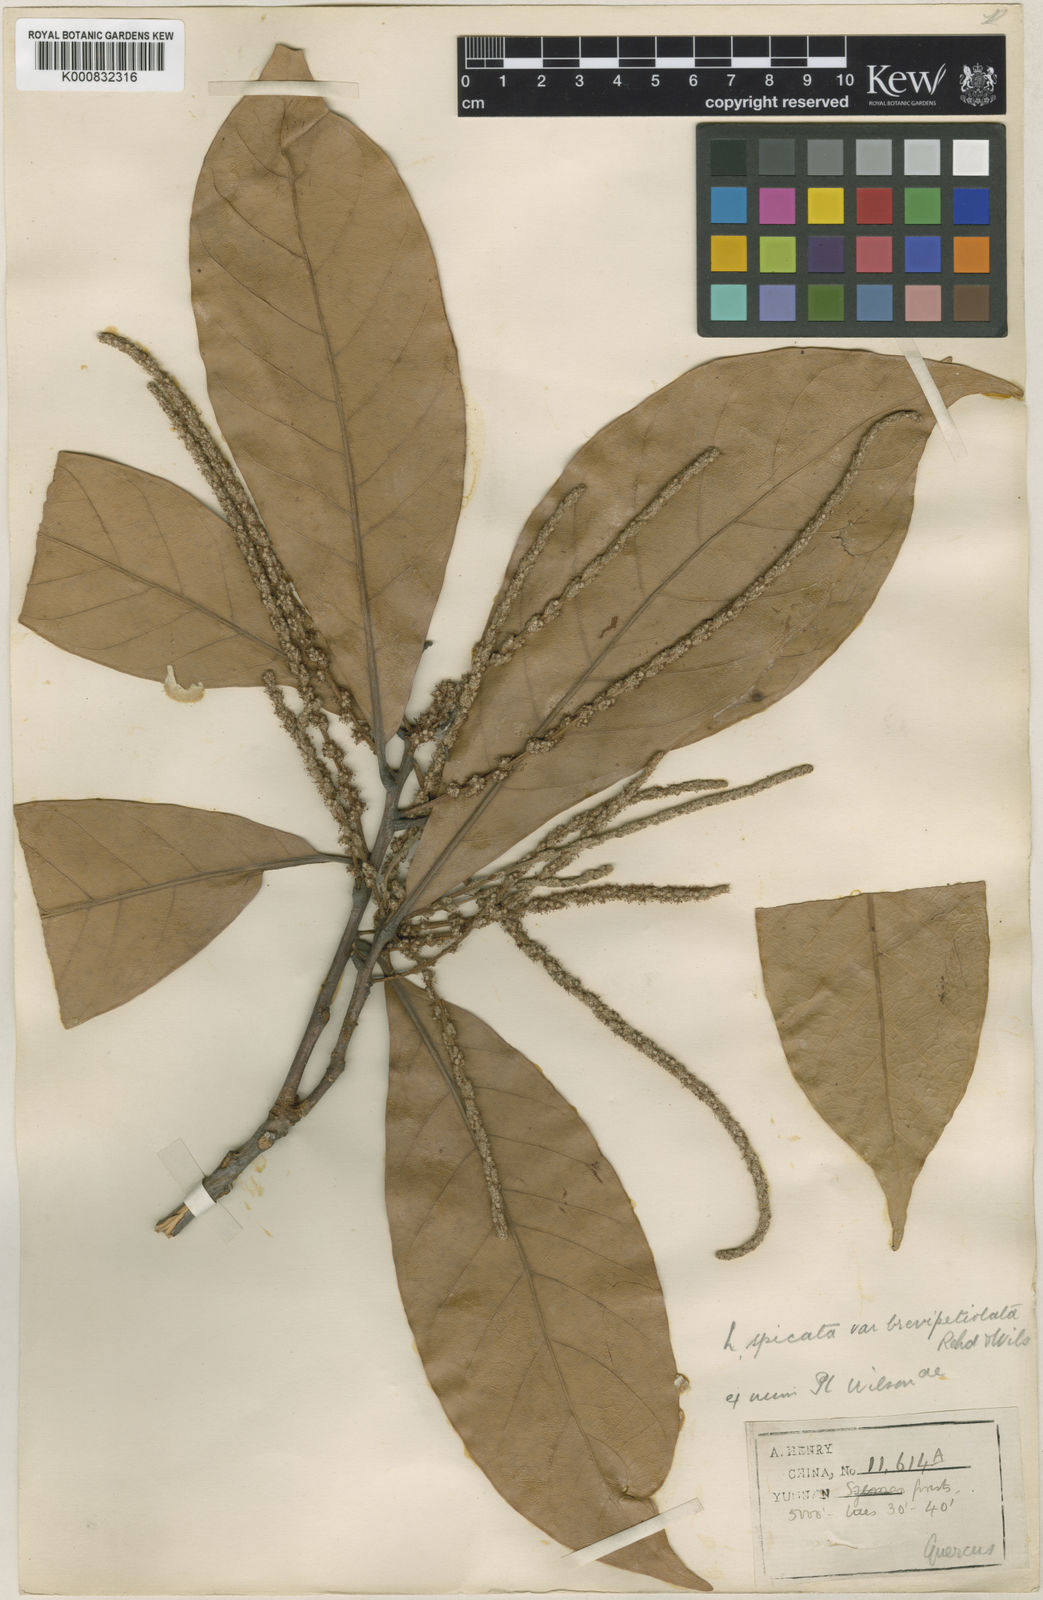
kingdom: Plantae
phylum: Tracheophyta
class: Magnoliopsida
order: Fagales
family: Fagaceae
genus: Lithocarpus
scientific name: Lithocarpus elegans
